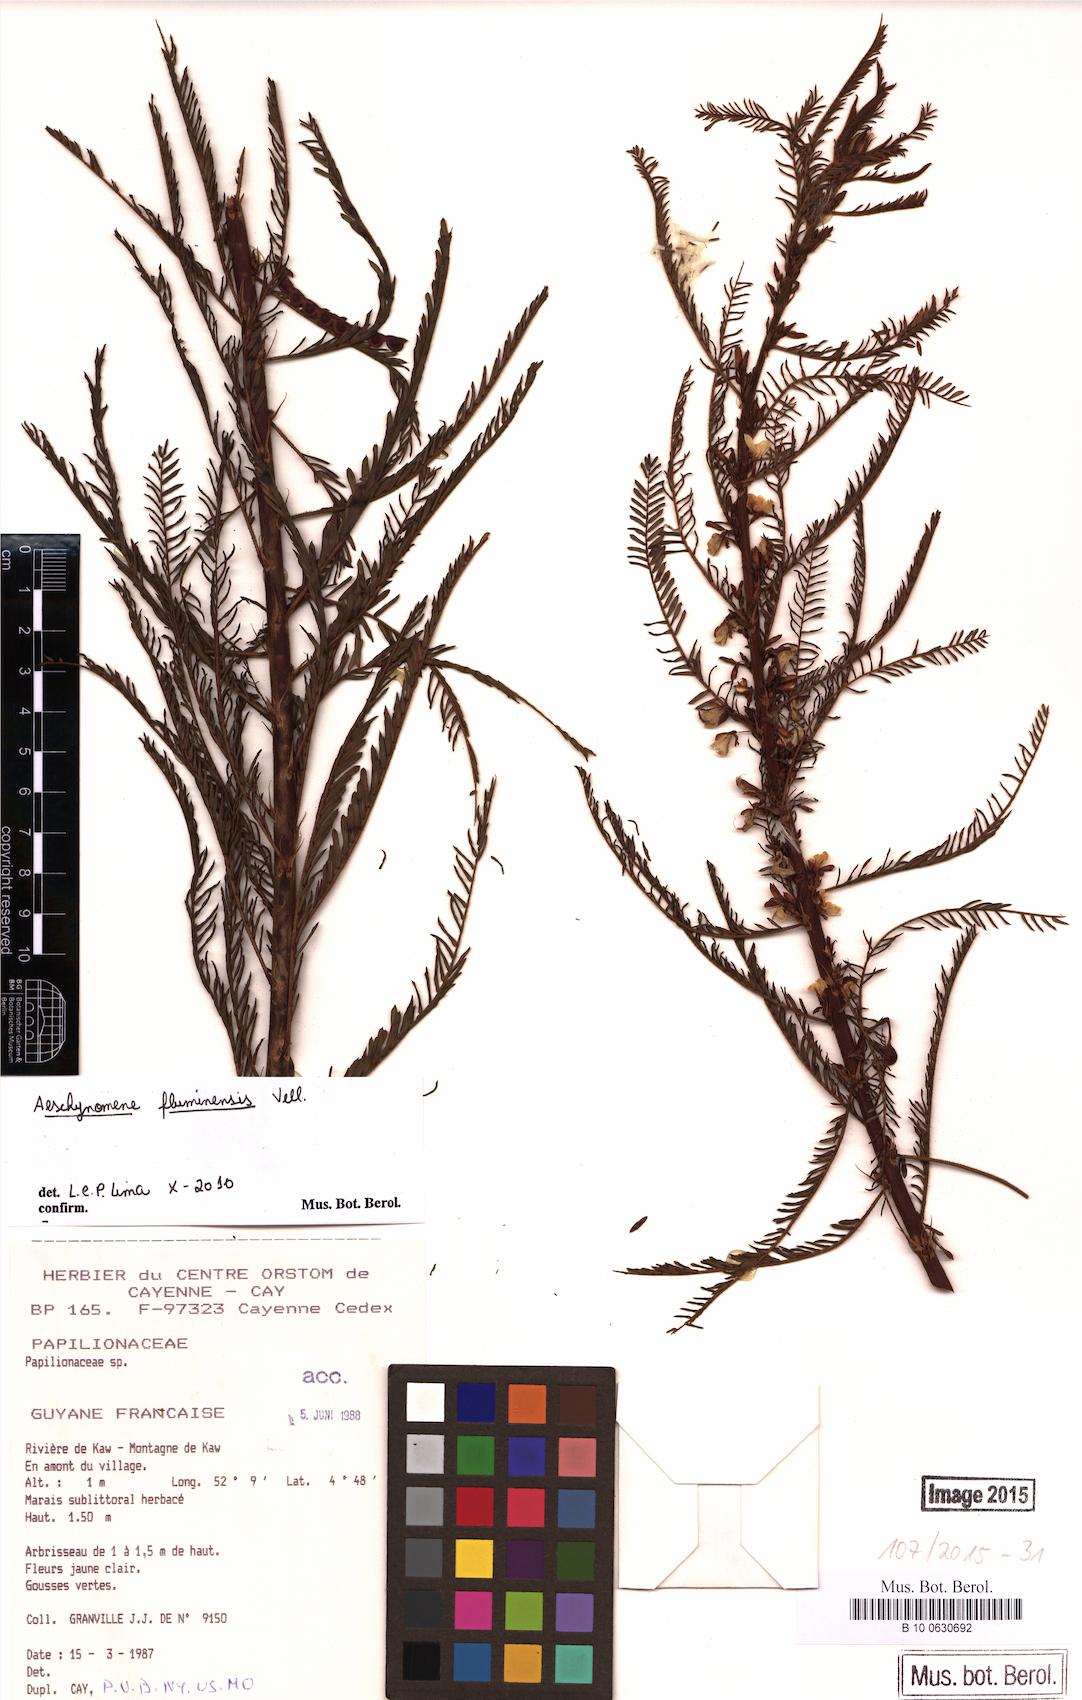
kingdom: Plantae
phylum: Tracheophyta
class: Magnoliopsida
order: Fabales
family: Fabaceae
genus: Aeschynomene
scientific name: Aeschynomene fluminensis
